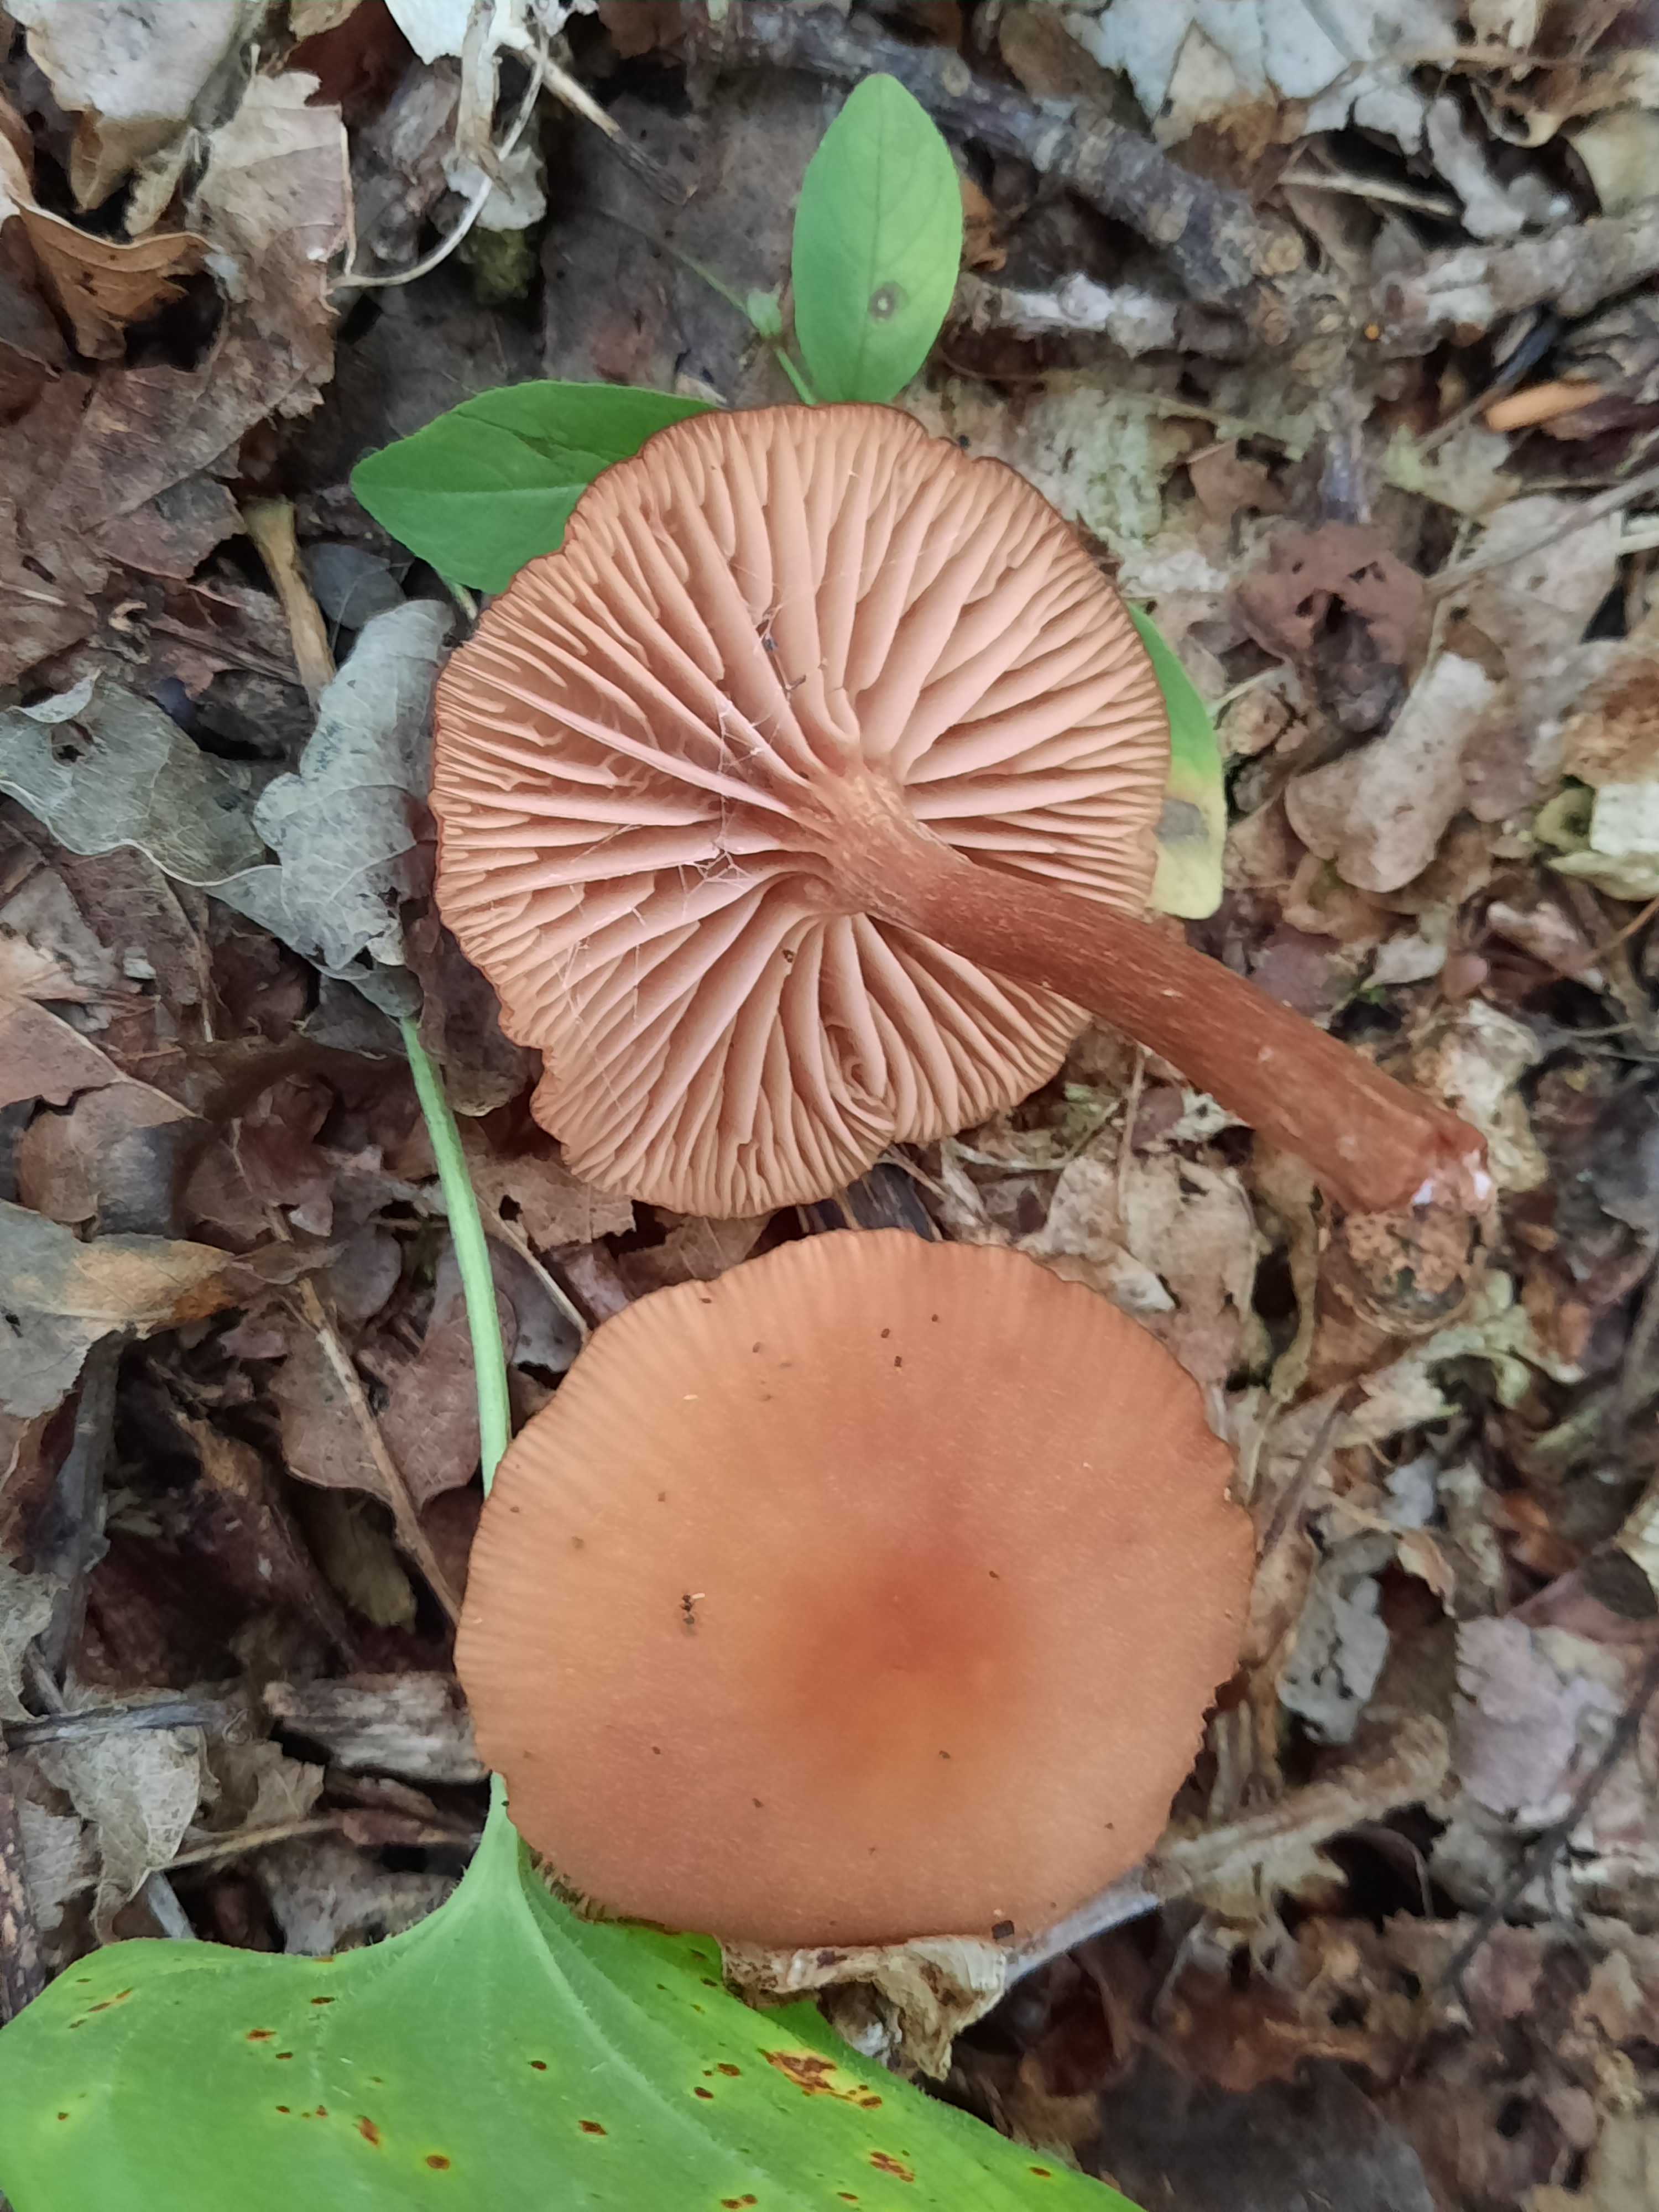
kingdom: Fungi
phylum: Basidiomycota
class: Agaricomycetes
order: Agaricales
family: Hydnangiaceae
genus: Laccaria
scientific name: Laccaria laccata
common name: rød ametysthat
